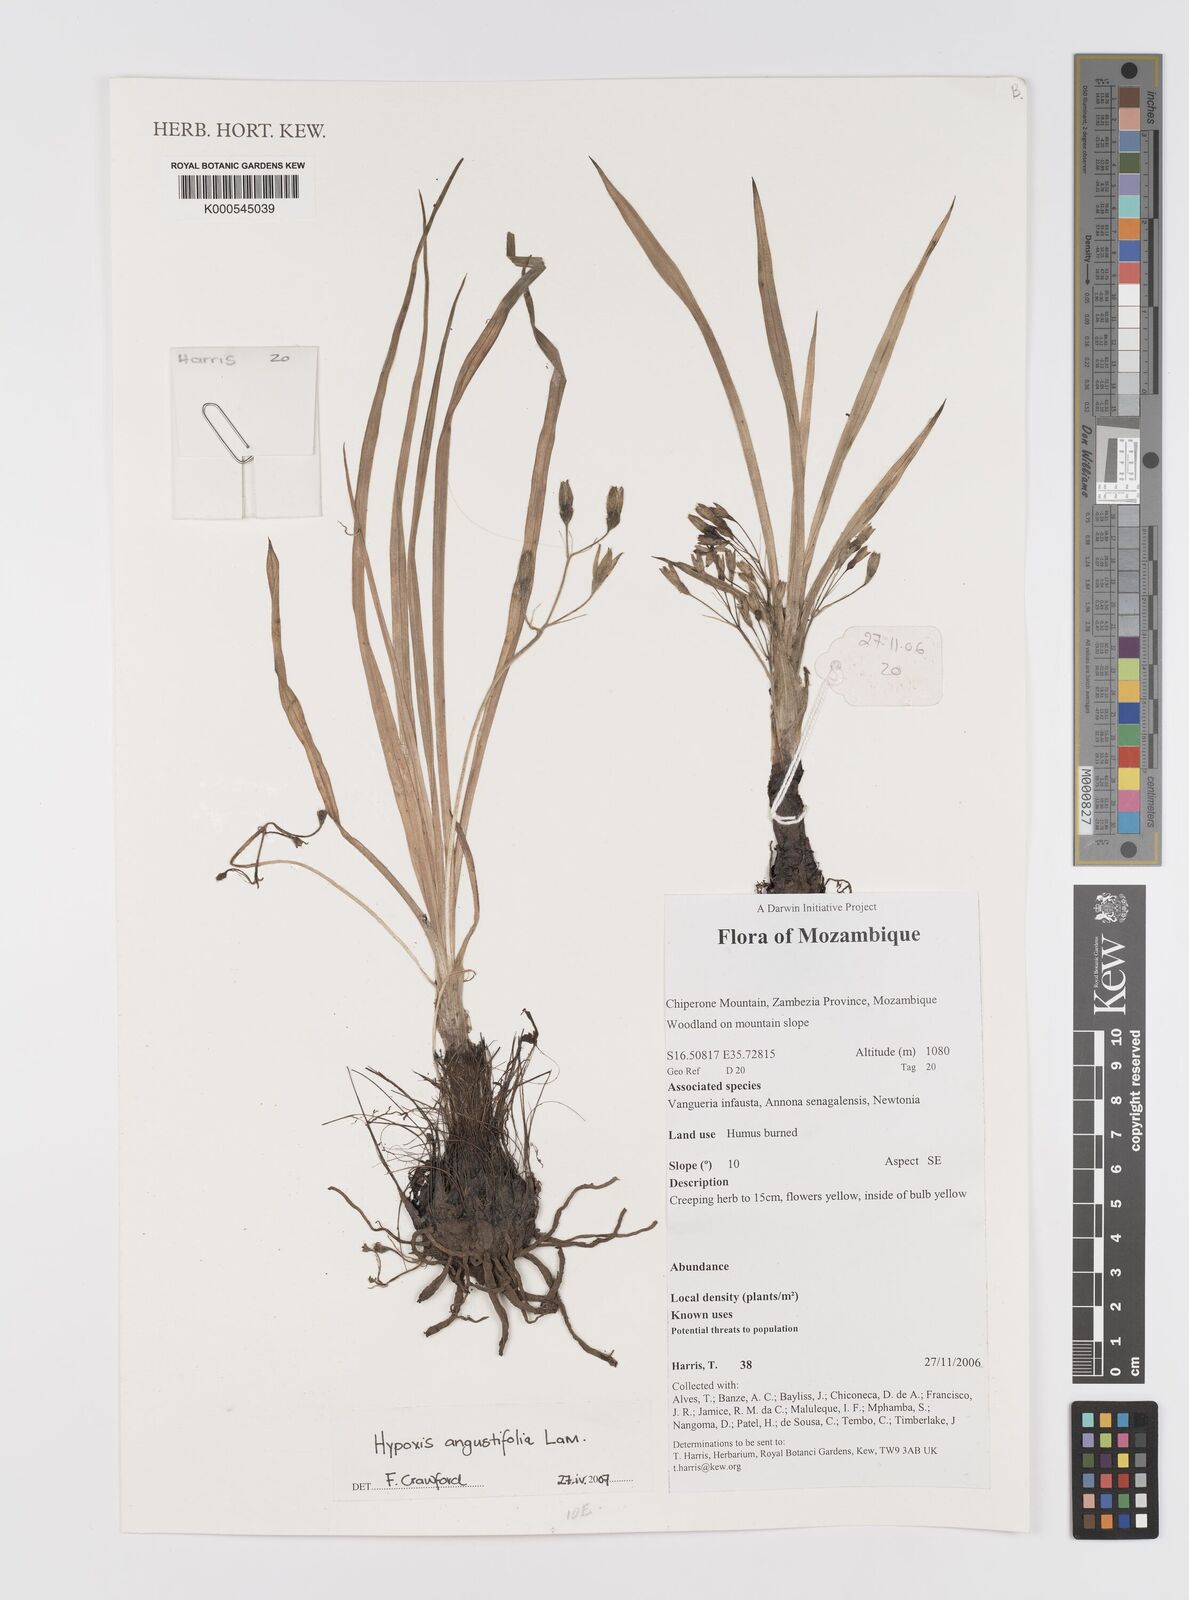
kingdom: Plantae
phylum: Tracheophyta
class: Liliopsida
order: Asparagales
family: Hypoxidaceae
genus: Hypoxis
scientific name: Hypoxis angustifolia
